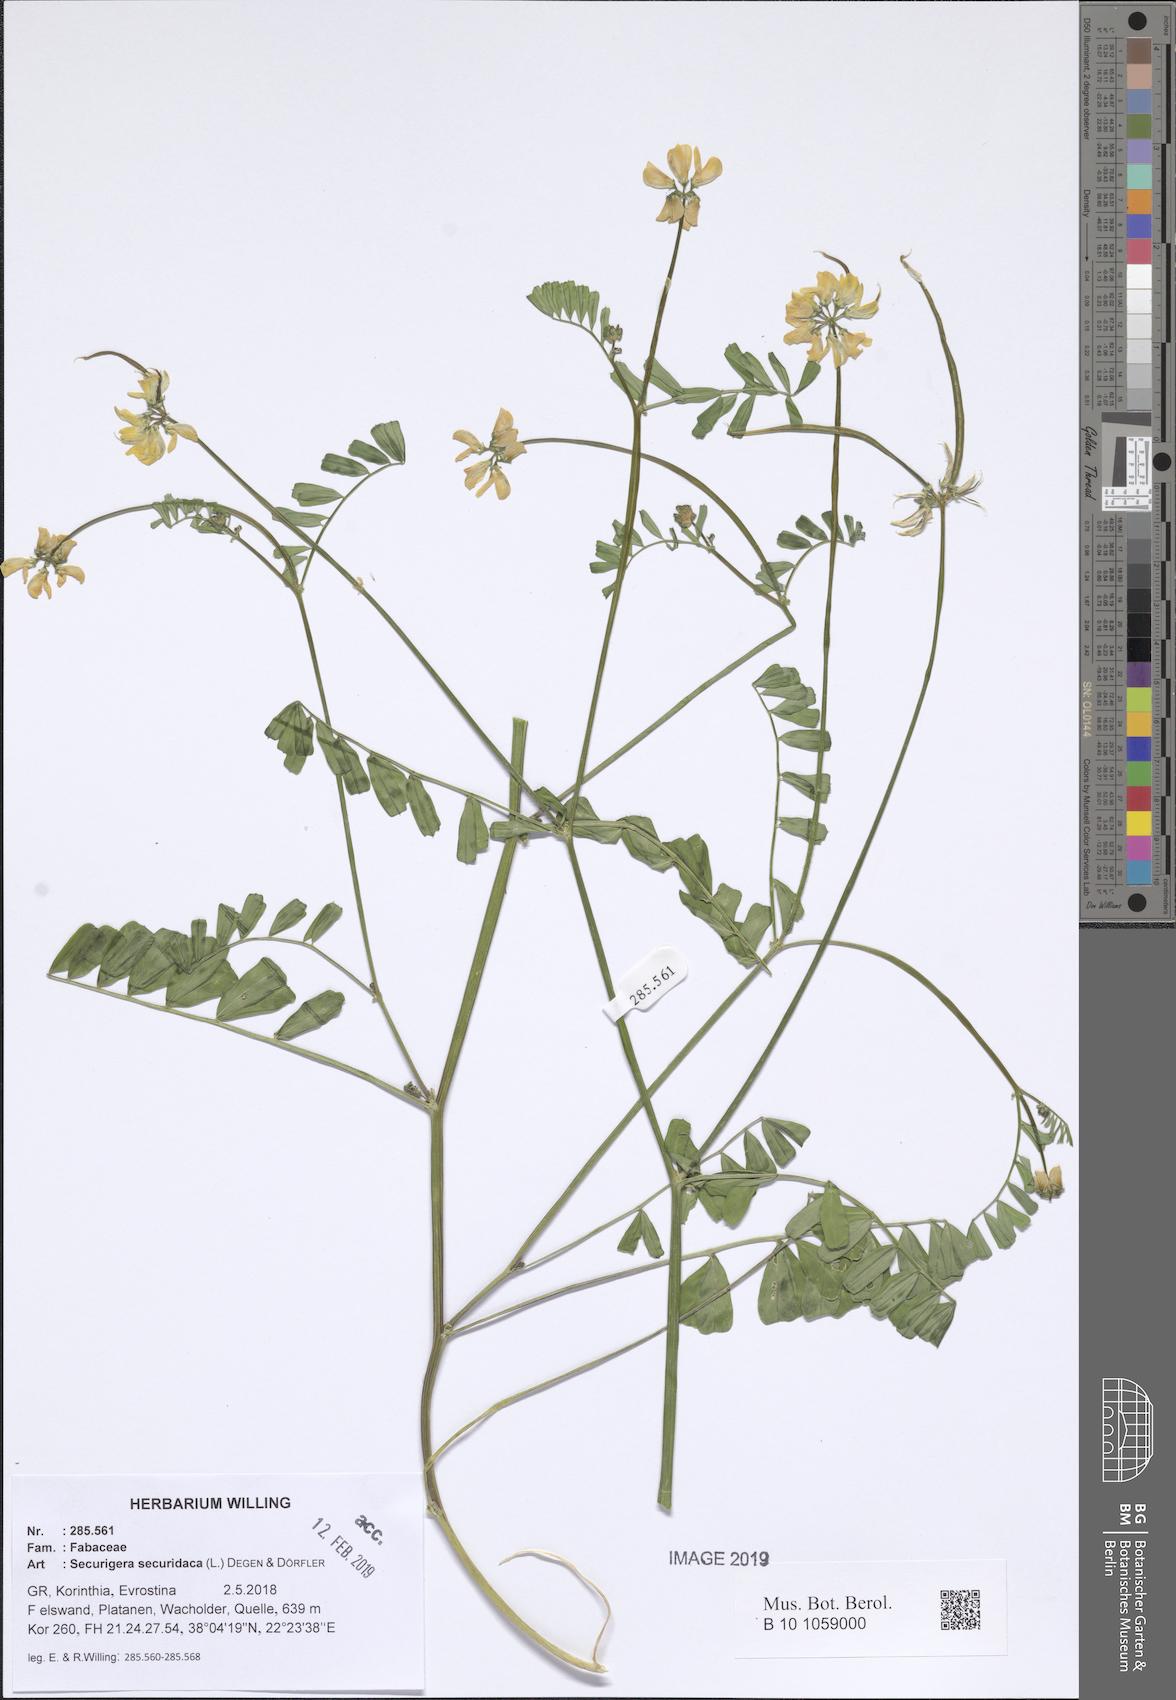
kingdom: Plantae
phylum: Tracheophyta
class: Magnoliopsida
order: Fabales
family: Fabaceae
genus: Coronilla
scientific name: Coronilla securidaca
